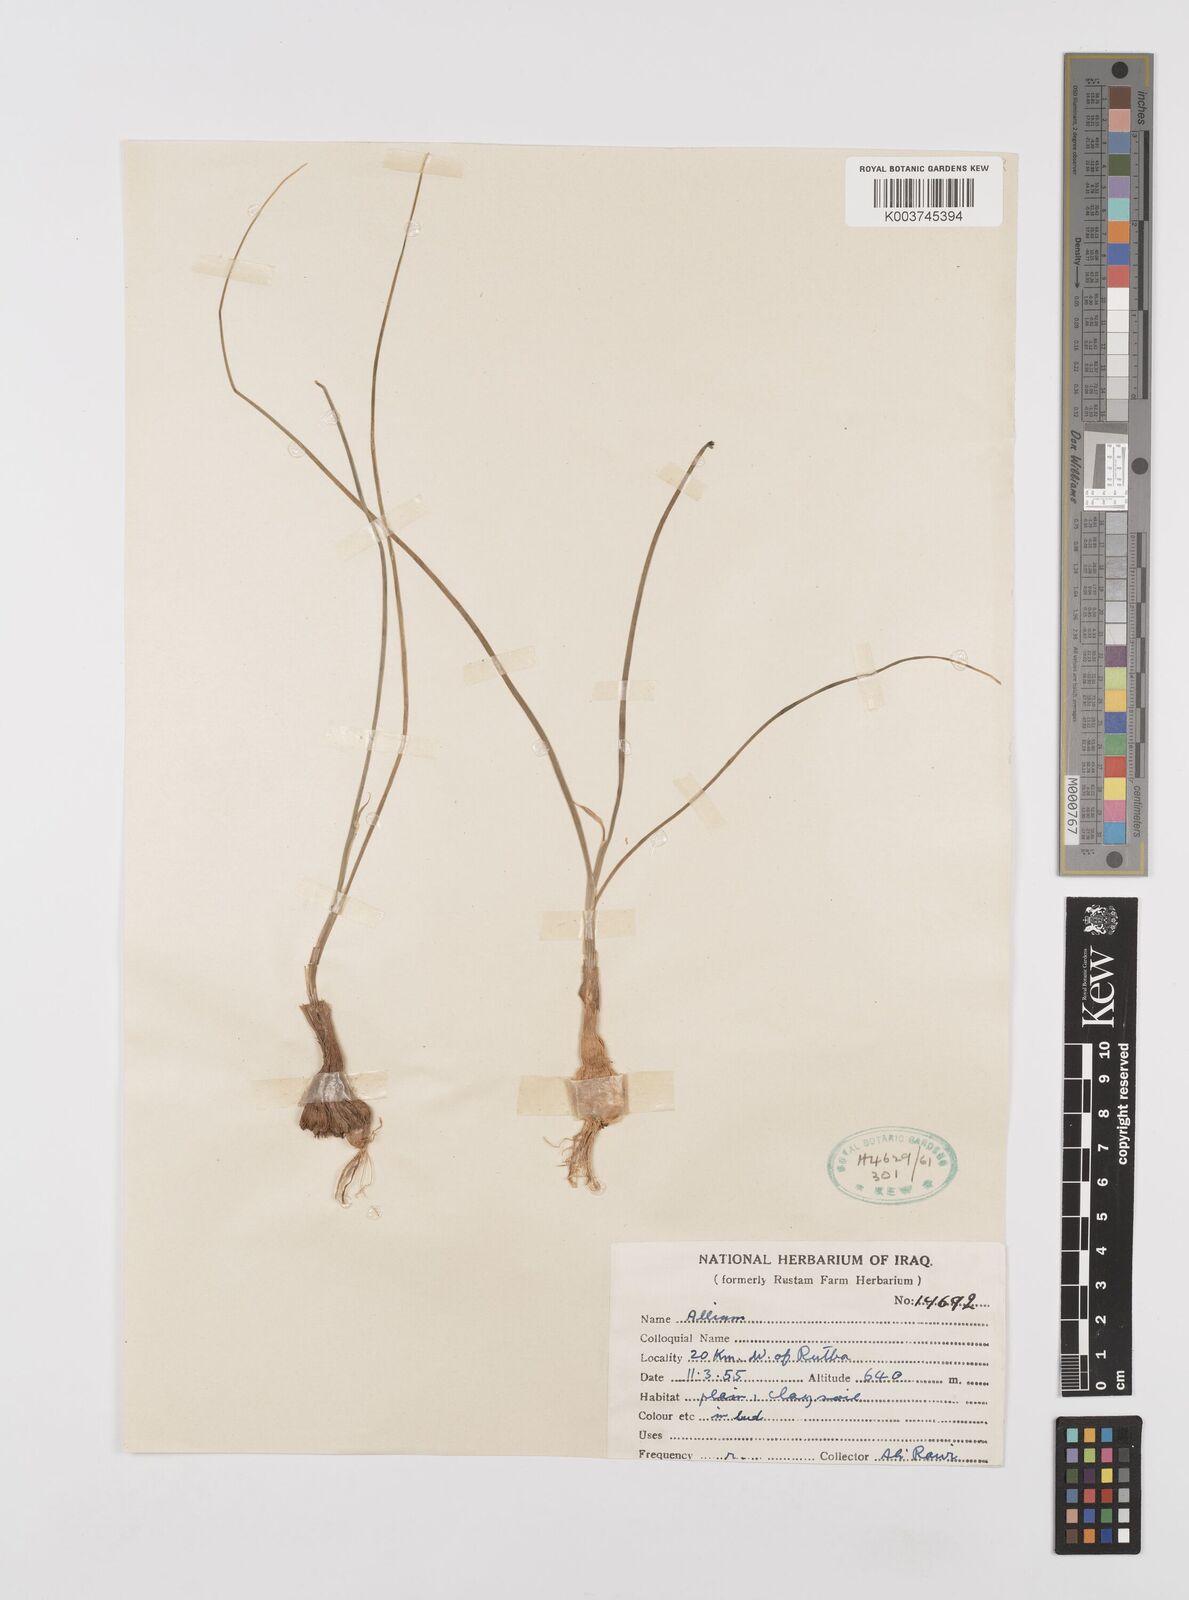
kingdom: Plantae
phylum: Tracheophyta
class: Liliopsida
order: Asparagales
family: Amaryllidaceae
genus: Allium
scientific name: Allium
